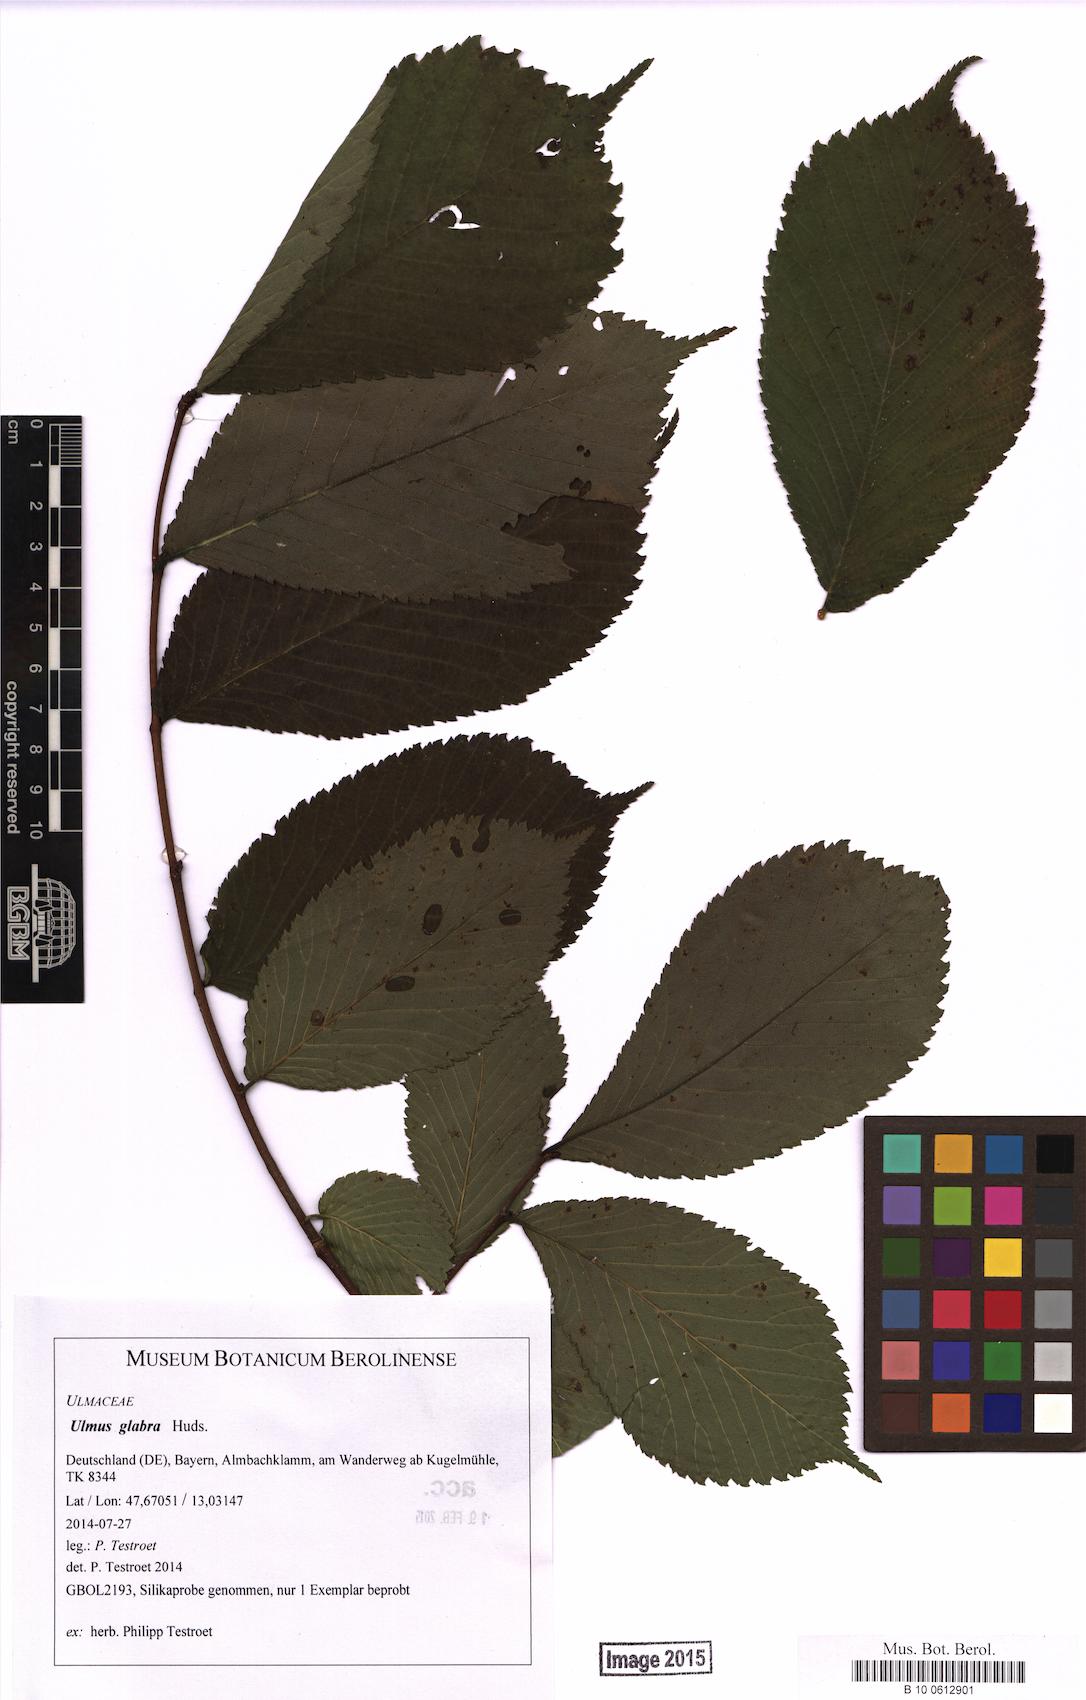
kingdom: Plantae
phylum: Tracheophyta
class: Magnoliopsida
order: Rosales
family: Ulmaceae
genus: Ulmus
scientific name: Ulmus glabra
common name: Wych elm
